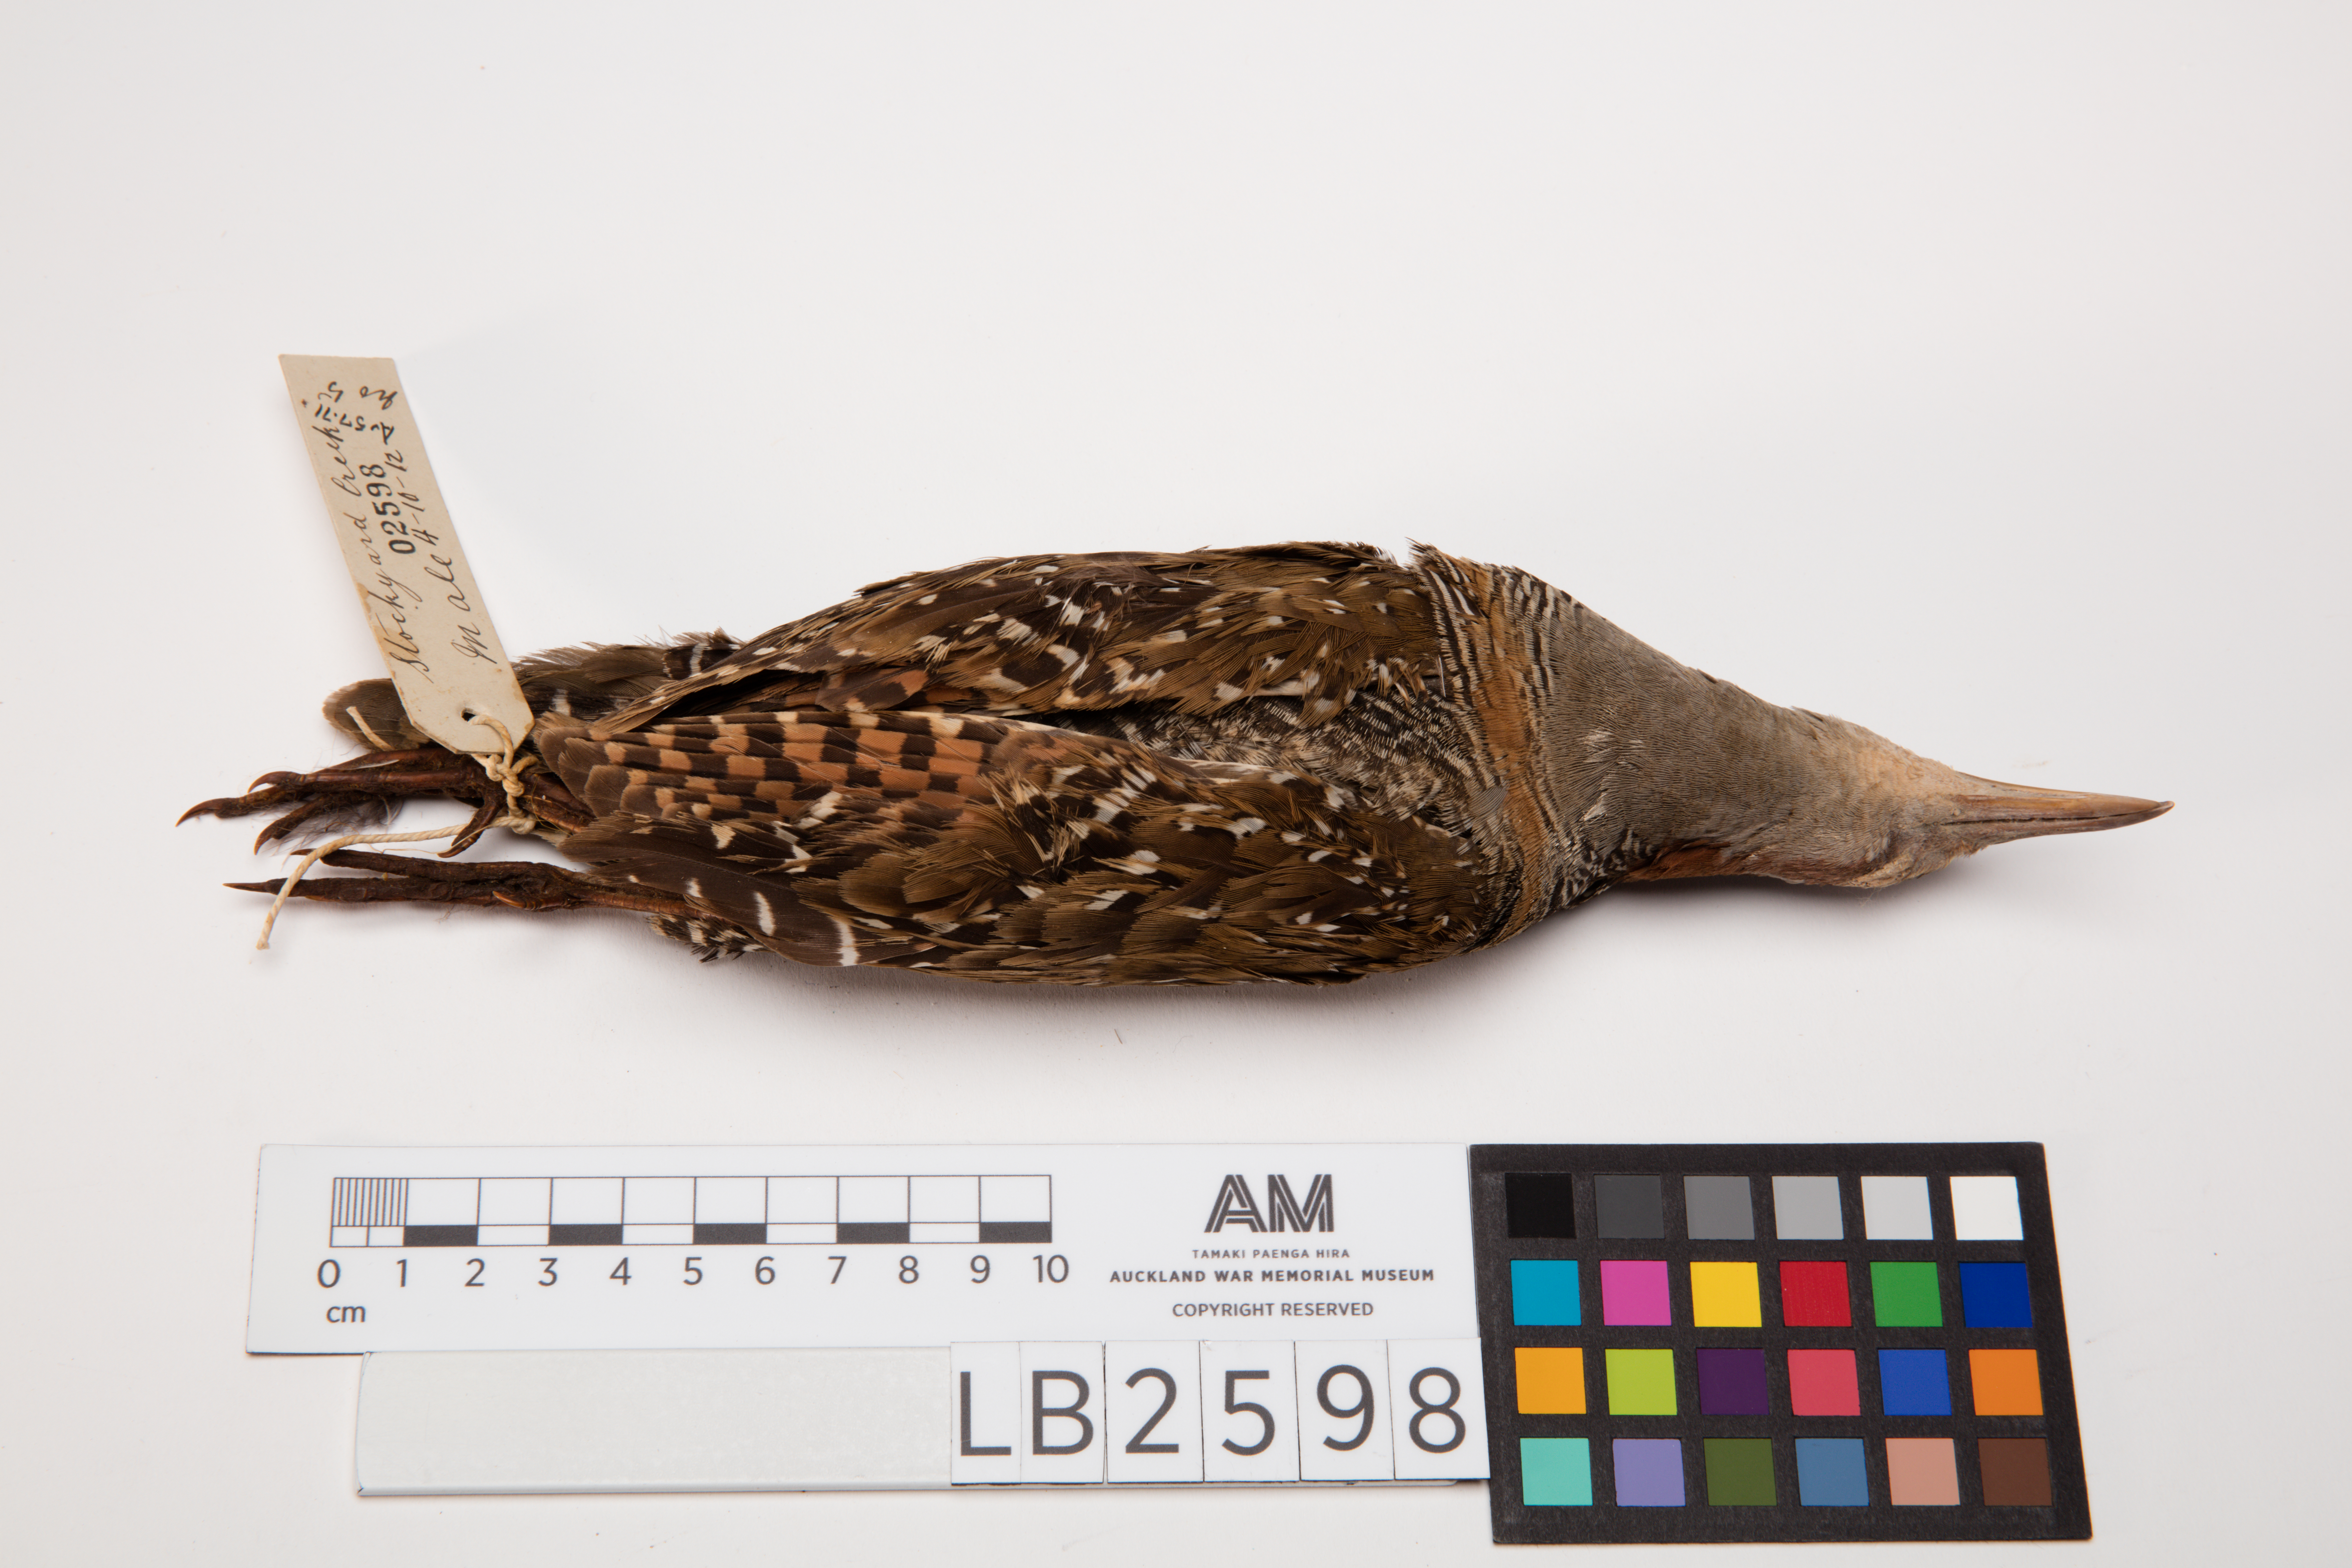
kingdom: Animalia
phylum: Chordata
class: Aves
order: Gruiformes
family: Rallidae
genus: Gallirallus
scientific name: Gallirallus philippensis
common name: Buff-banded rail
